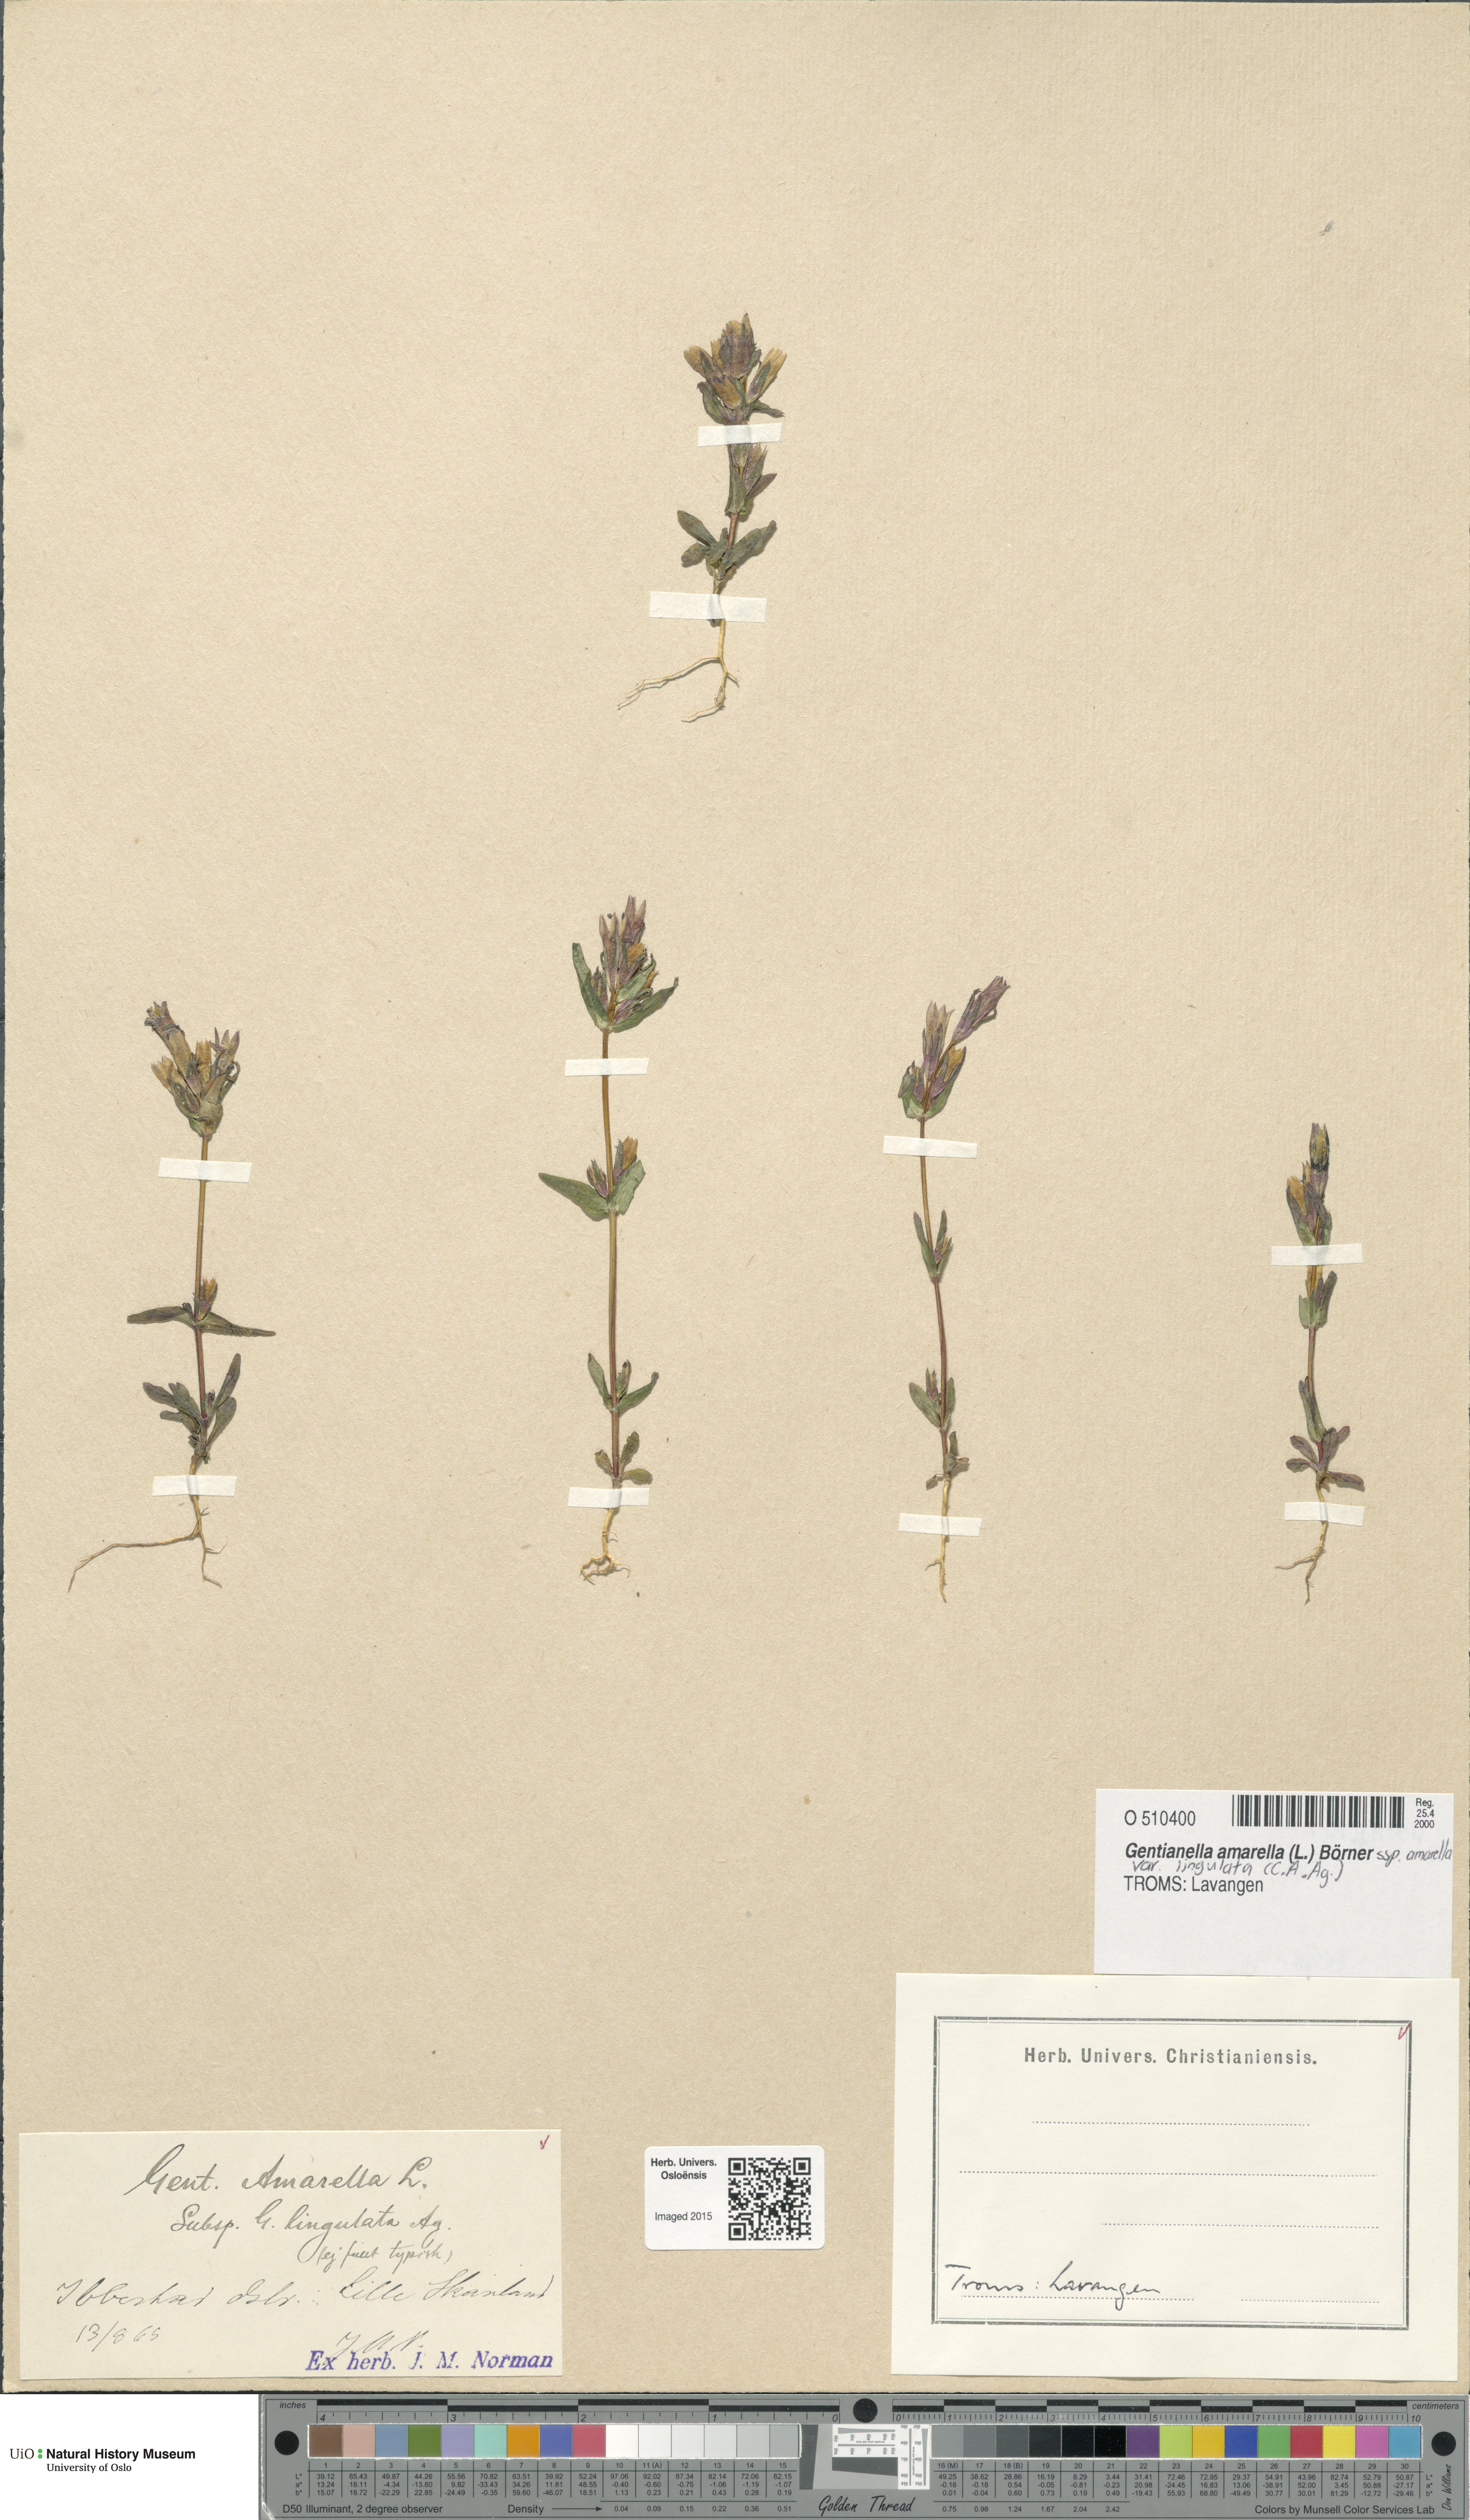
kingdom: Plantae
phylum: Tracheophyta
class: Magnoliopsida
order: Gentianales
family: Gentianaceae
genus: Gentianella
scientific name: Gentianella amarella
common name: Autumn gentian
